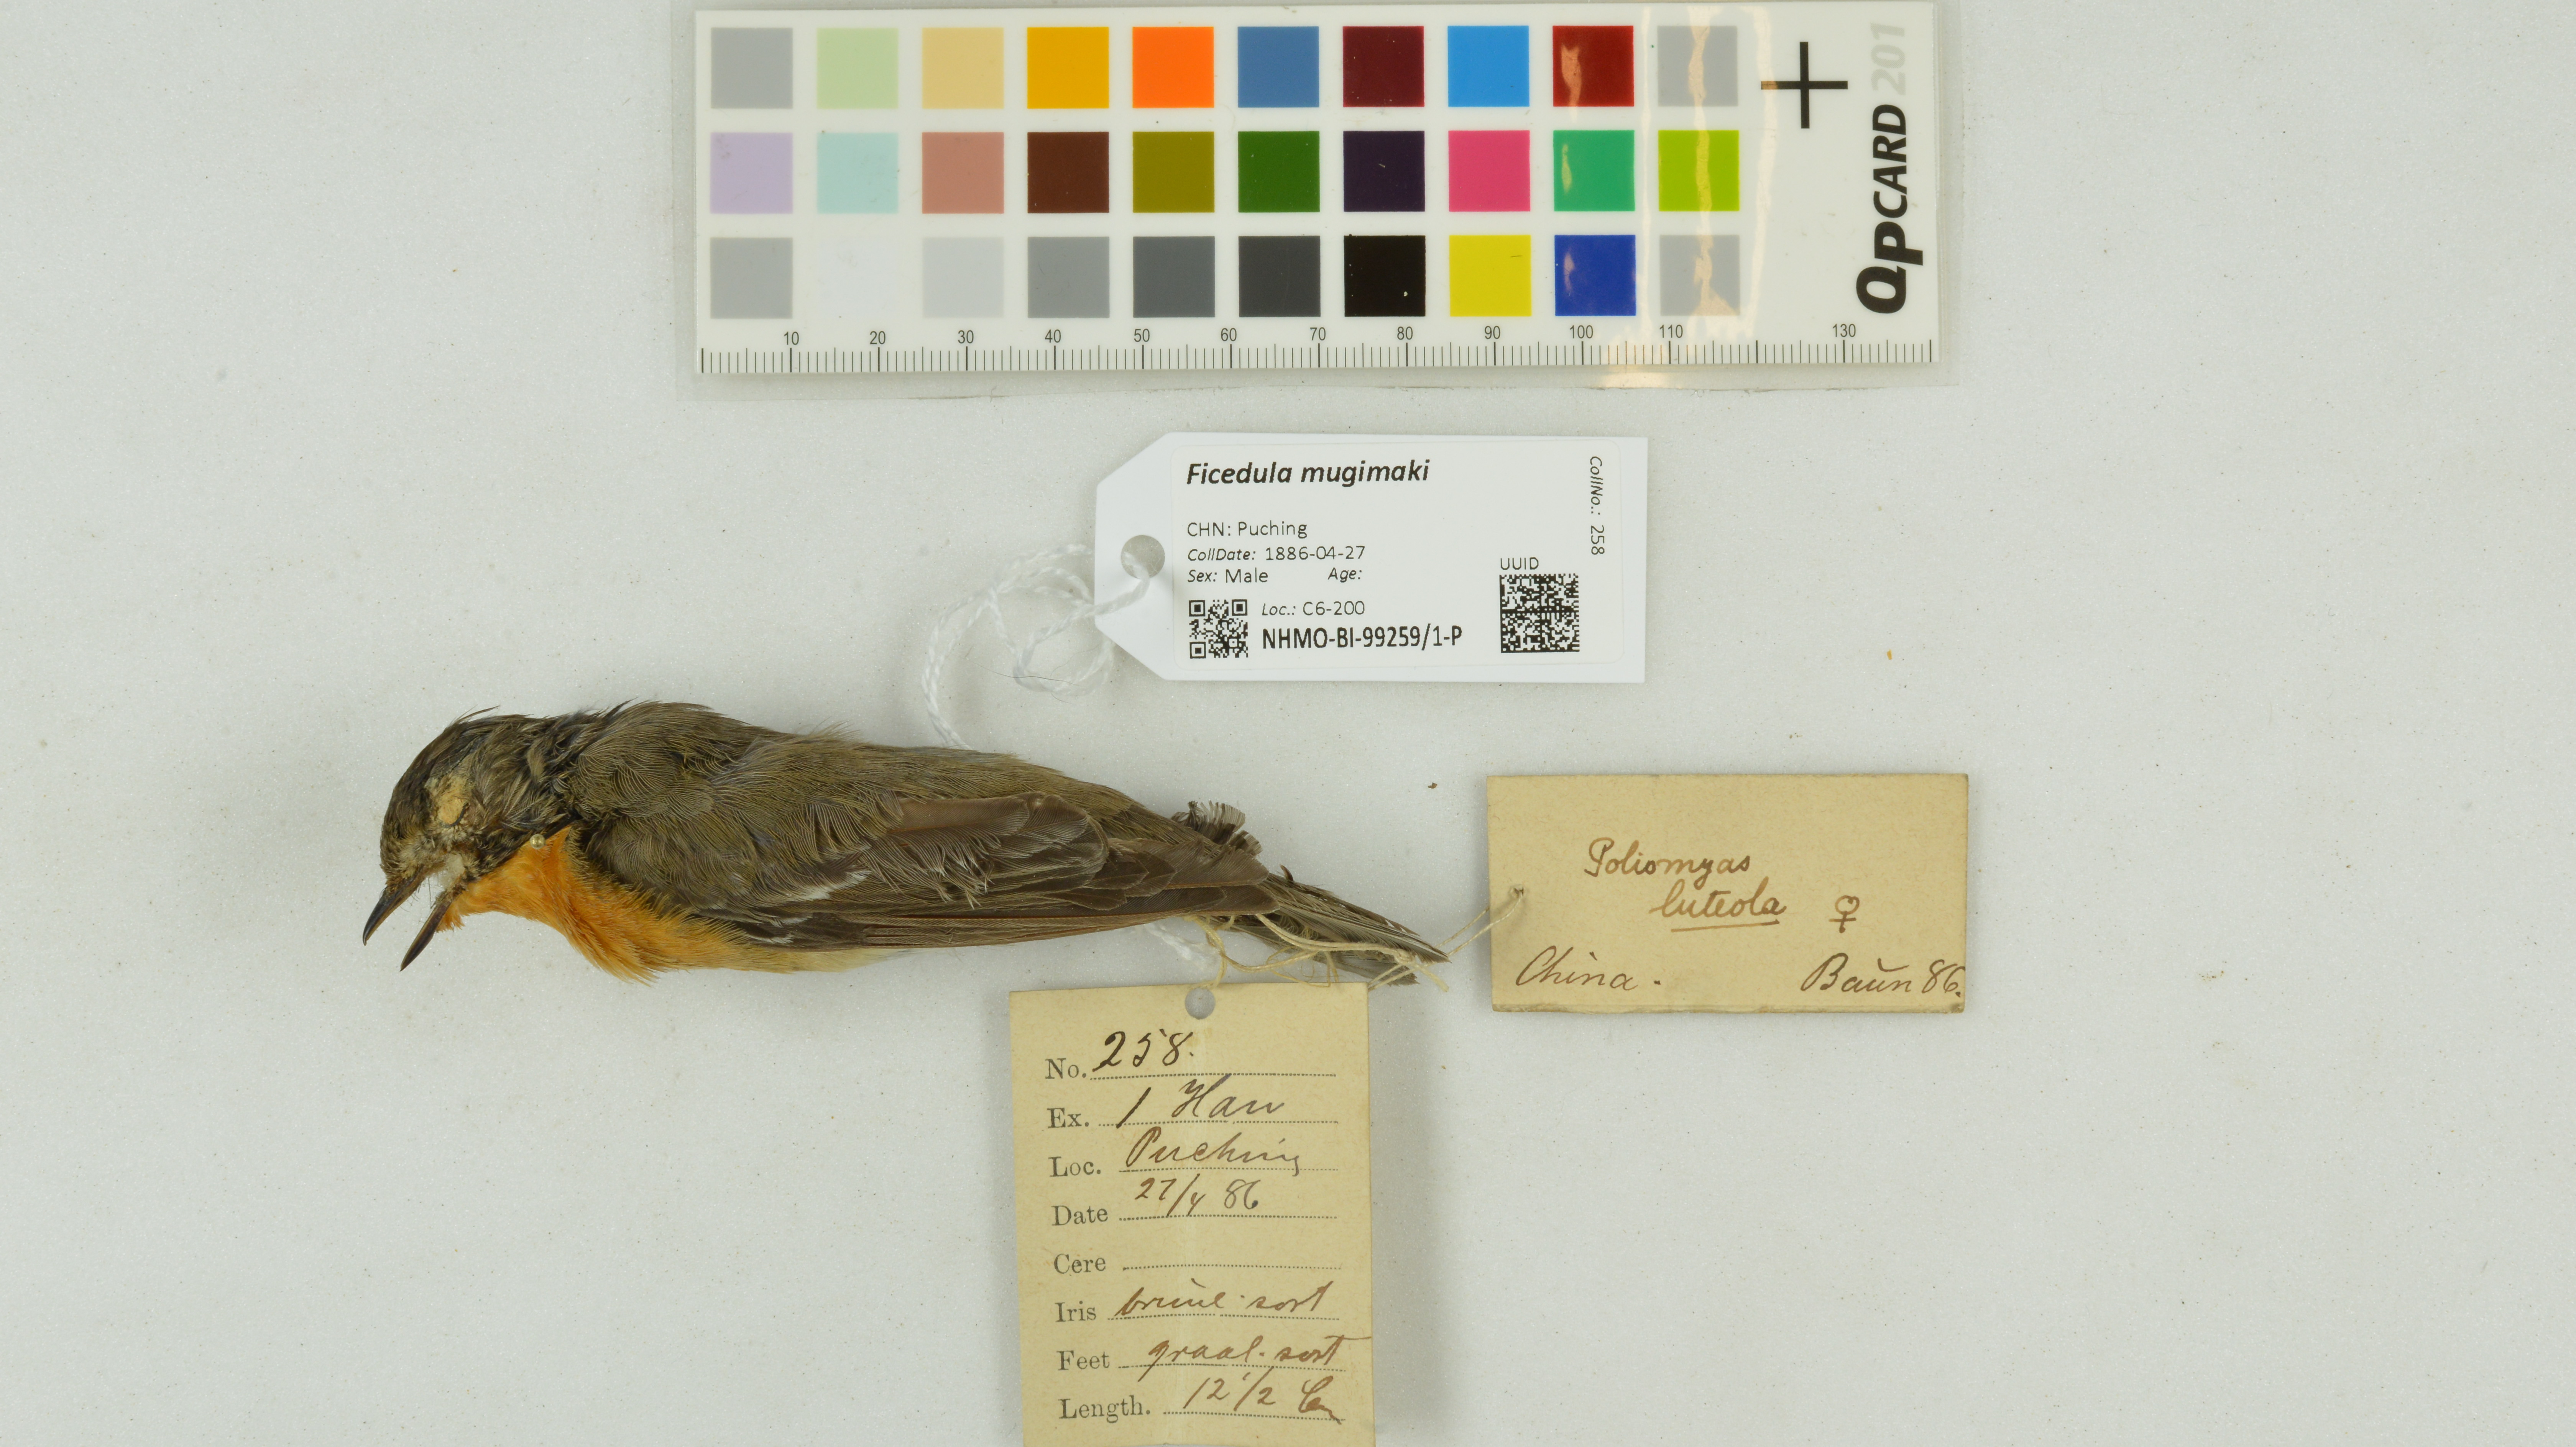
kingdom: Animalia
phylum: Chordata
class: Aves
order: Passeriformes
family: Muscicapidae
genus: Ficedula
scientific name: Ficedula mugimaki
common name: Mugimaki flycatcher
